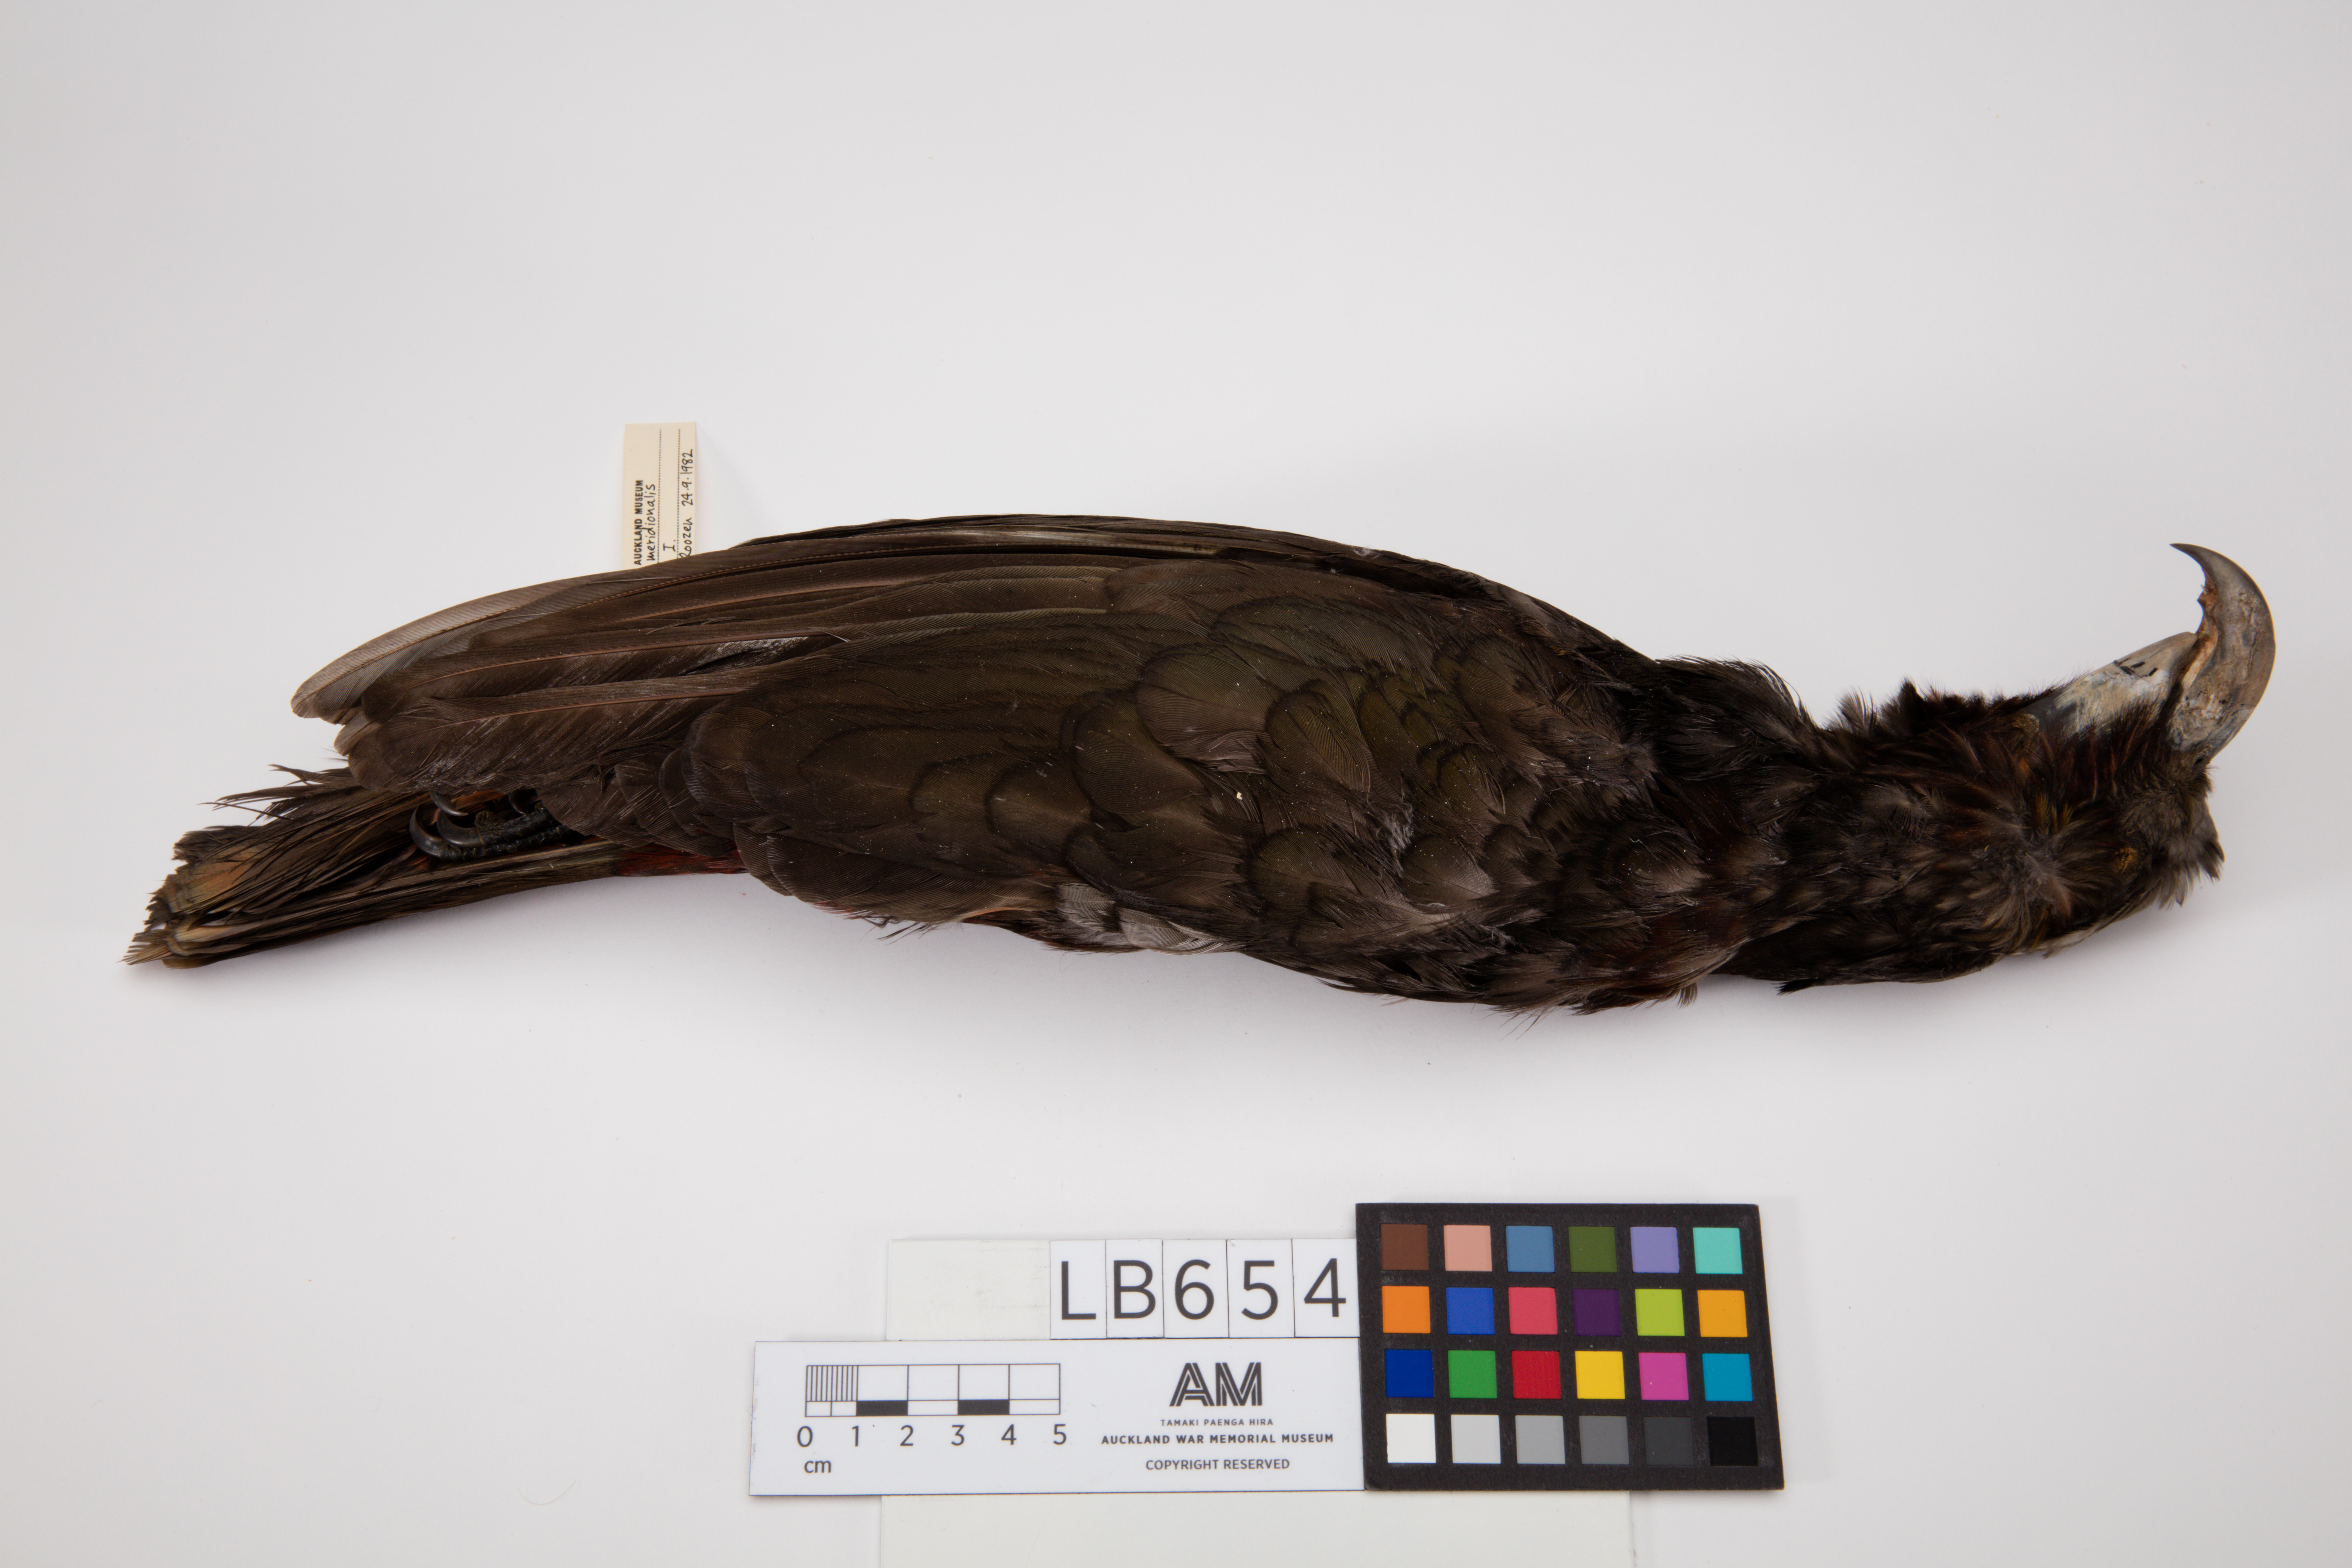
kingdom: Animalia
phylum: Chordata
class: Aves
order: Psittaciformes
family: Psittacidae
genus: Nestor
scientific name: Nestor meridionalis
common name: New zealand kaka
